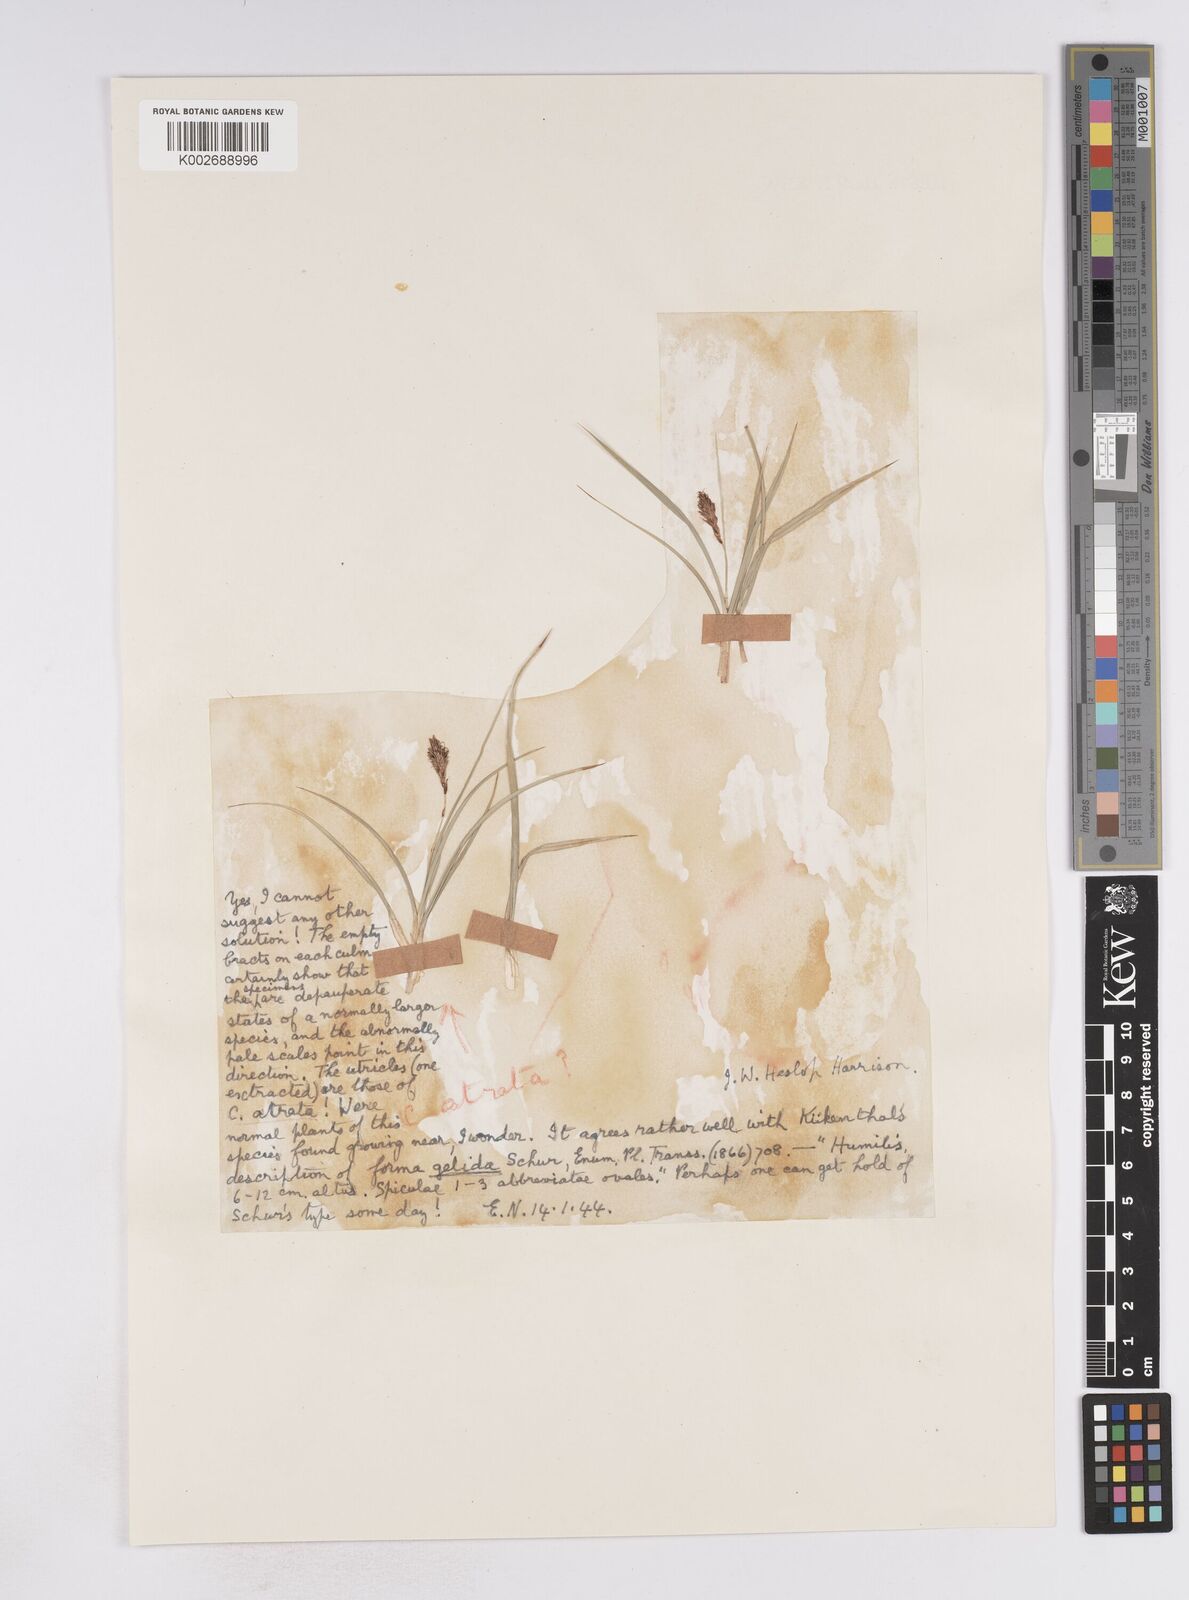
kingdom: Plantae
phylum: Tracheophyta
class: Liliopsida
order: Poales
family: Cyperaceae
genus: Carex
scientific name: Carex atrata
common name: Black alpine sedge
